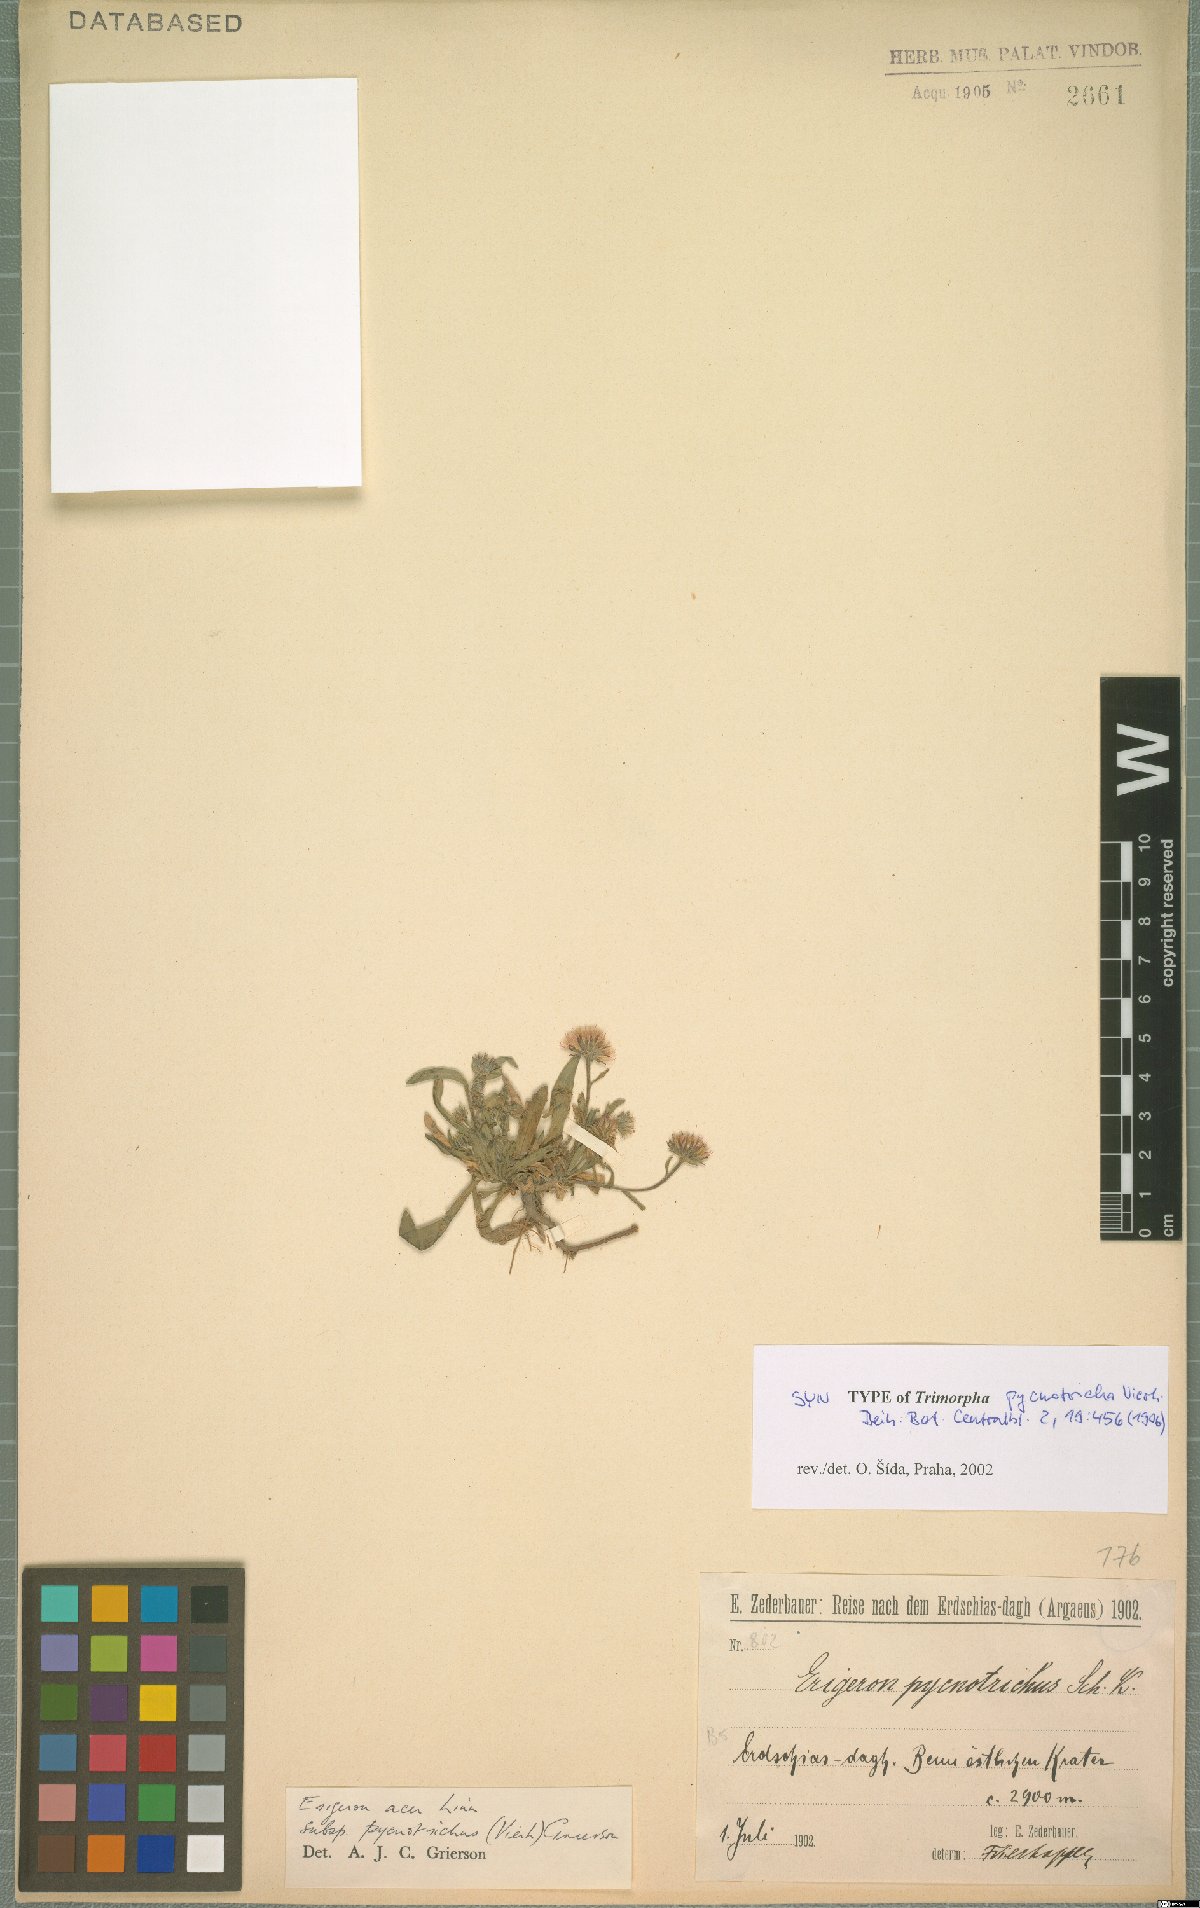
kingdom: Plantae
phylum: Tracheophyta
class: Magnoliopsida
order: Asterales
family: Asteraceae
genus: Erigeron
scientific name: Erigeron acris
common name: Blue fleabane
